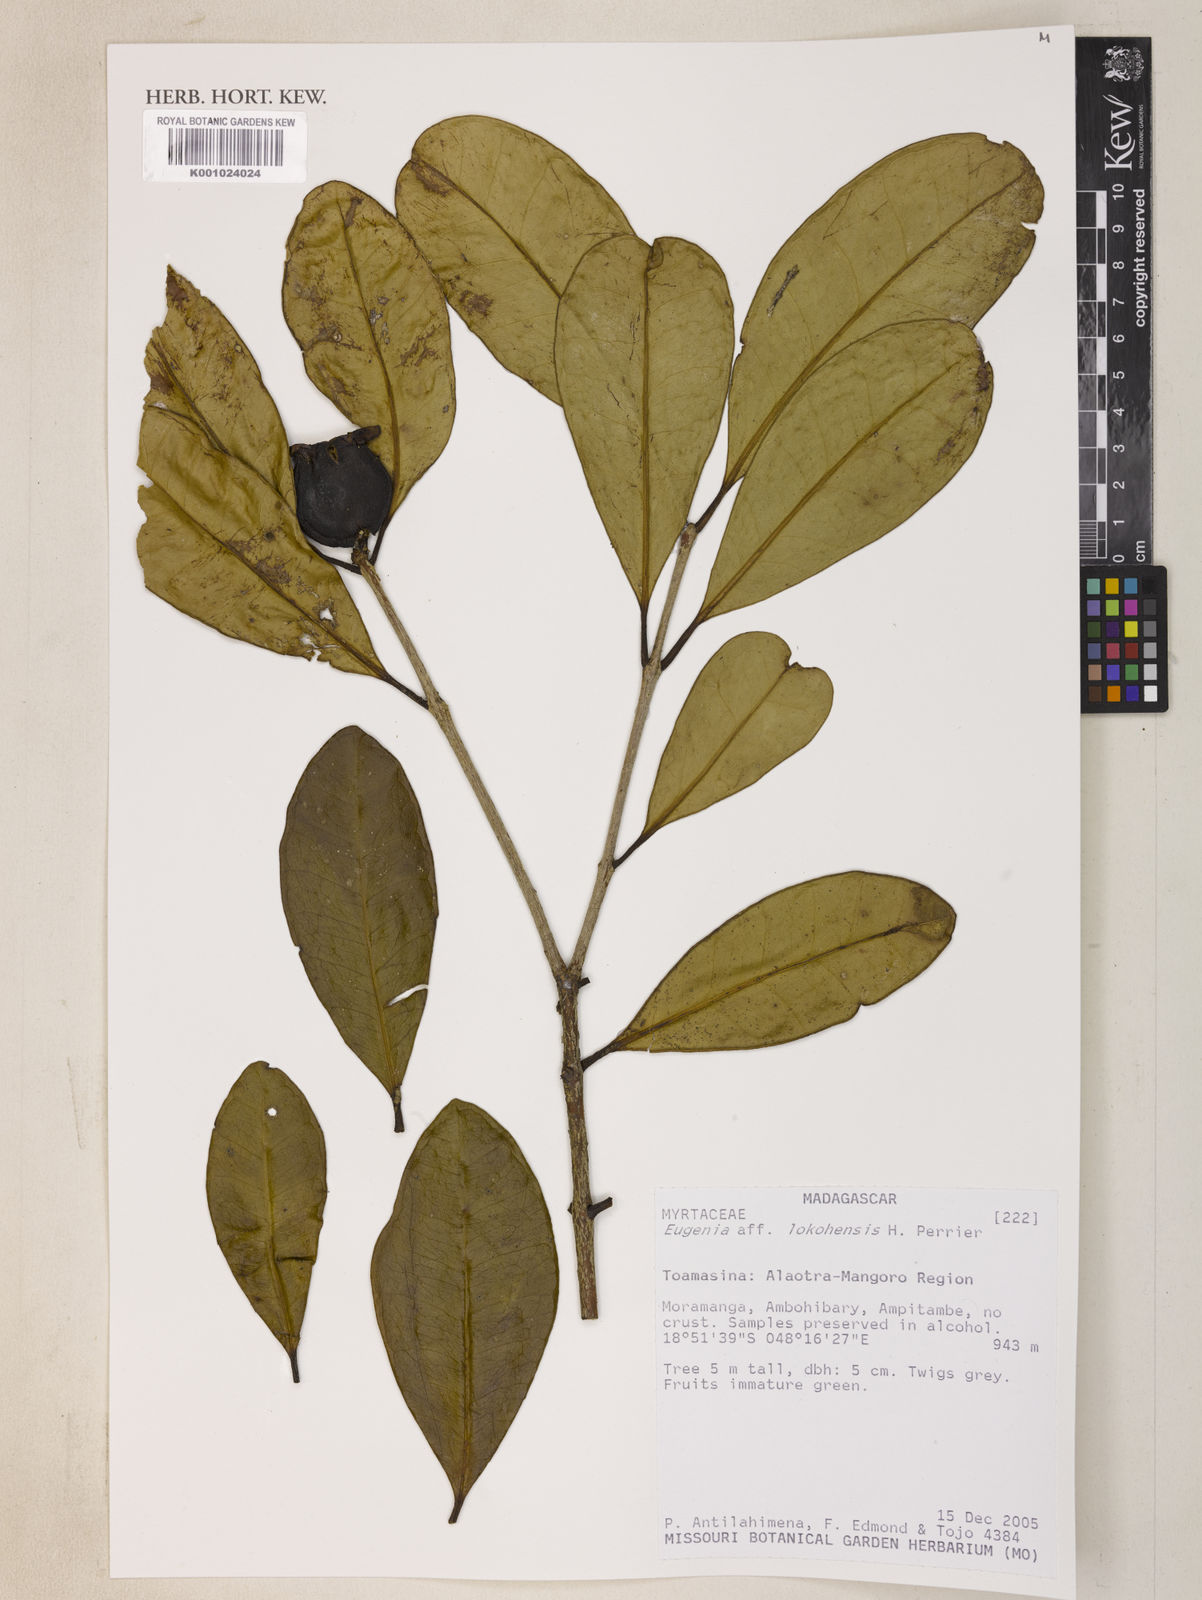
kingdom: Plantae
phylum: Tracheophyta
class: Magnoliopsida
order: Myrtales
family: Myrtaceae
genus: Eugenia
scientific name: Eugenia
